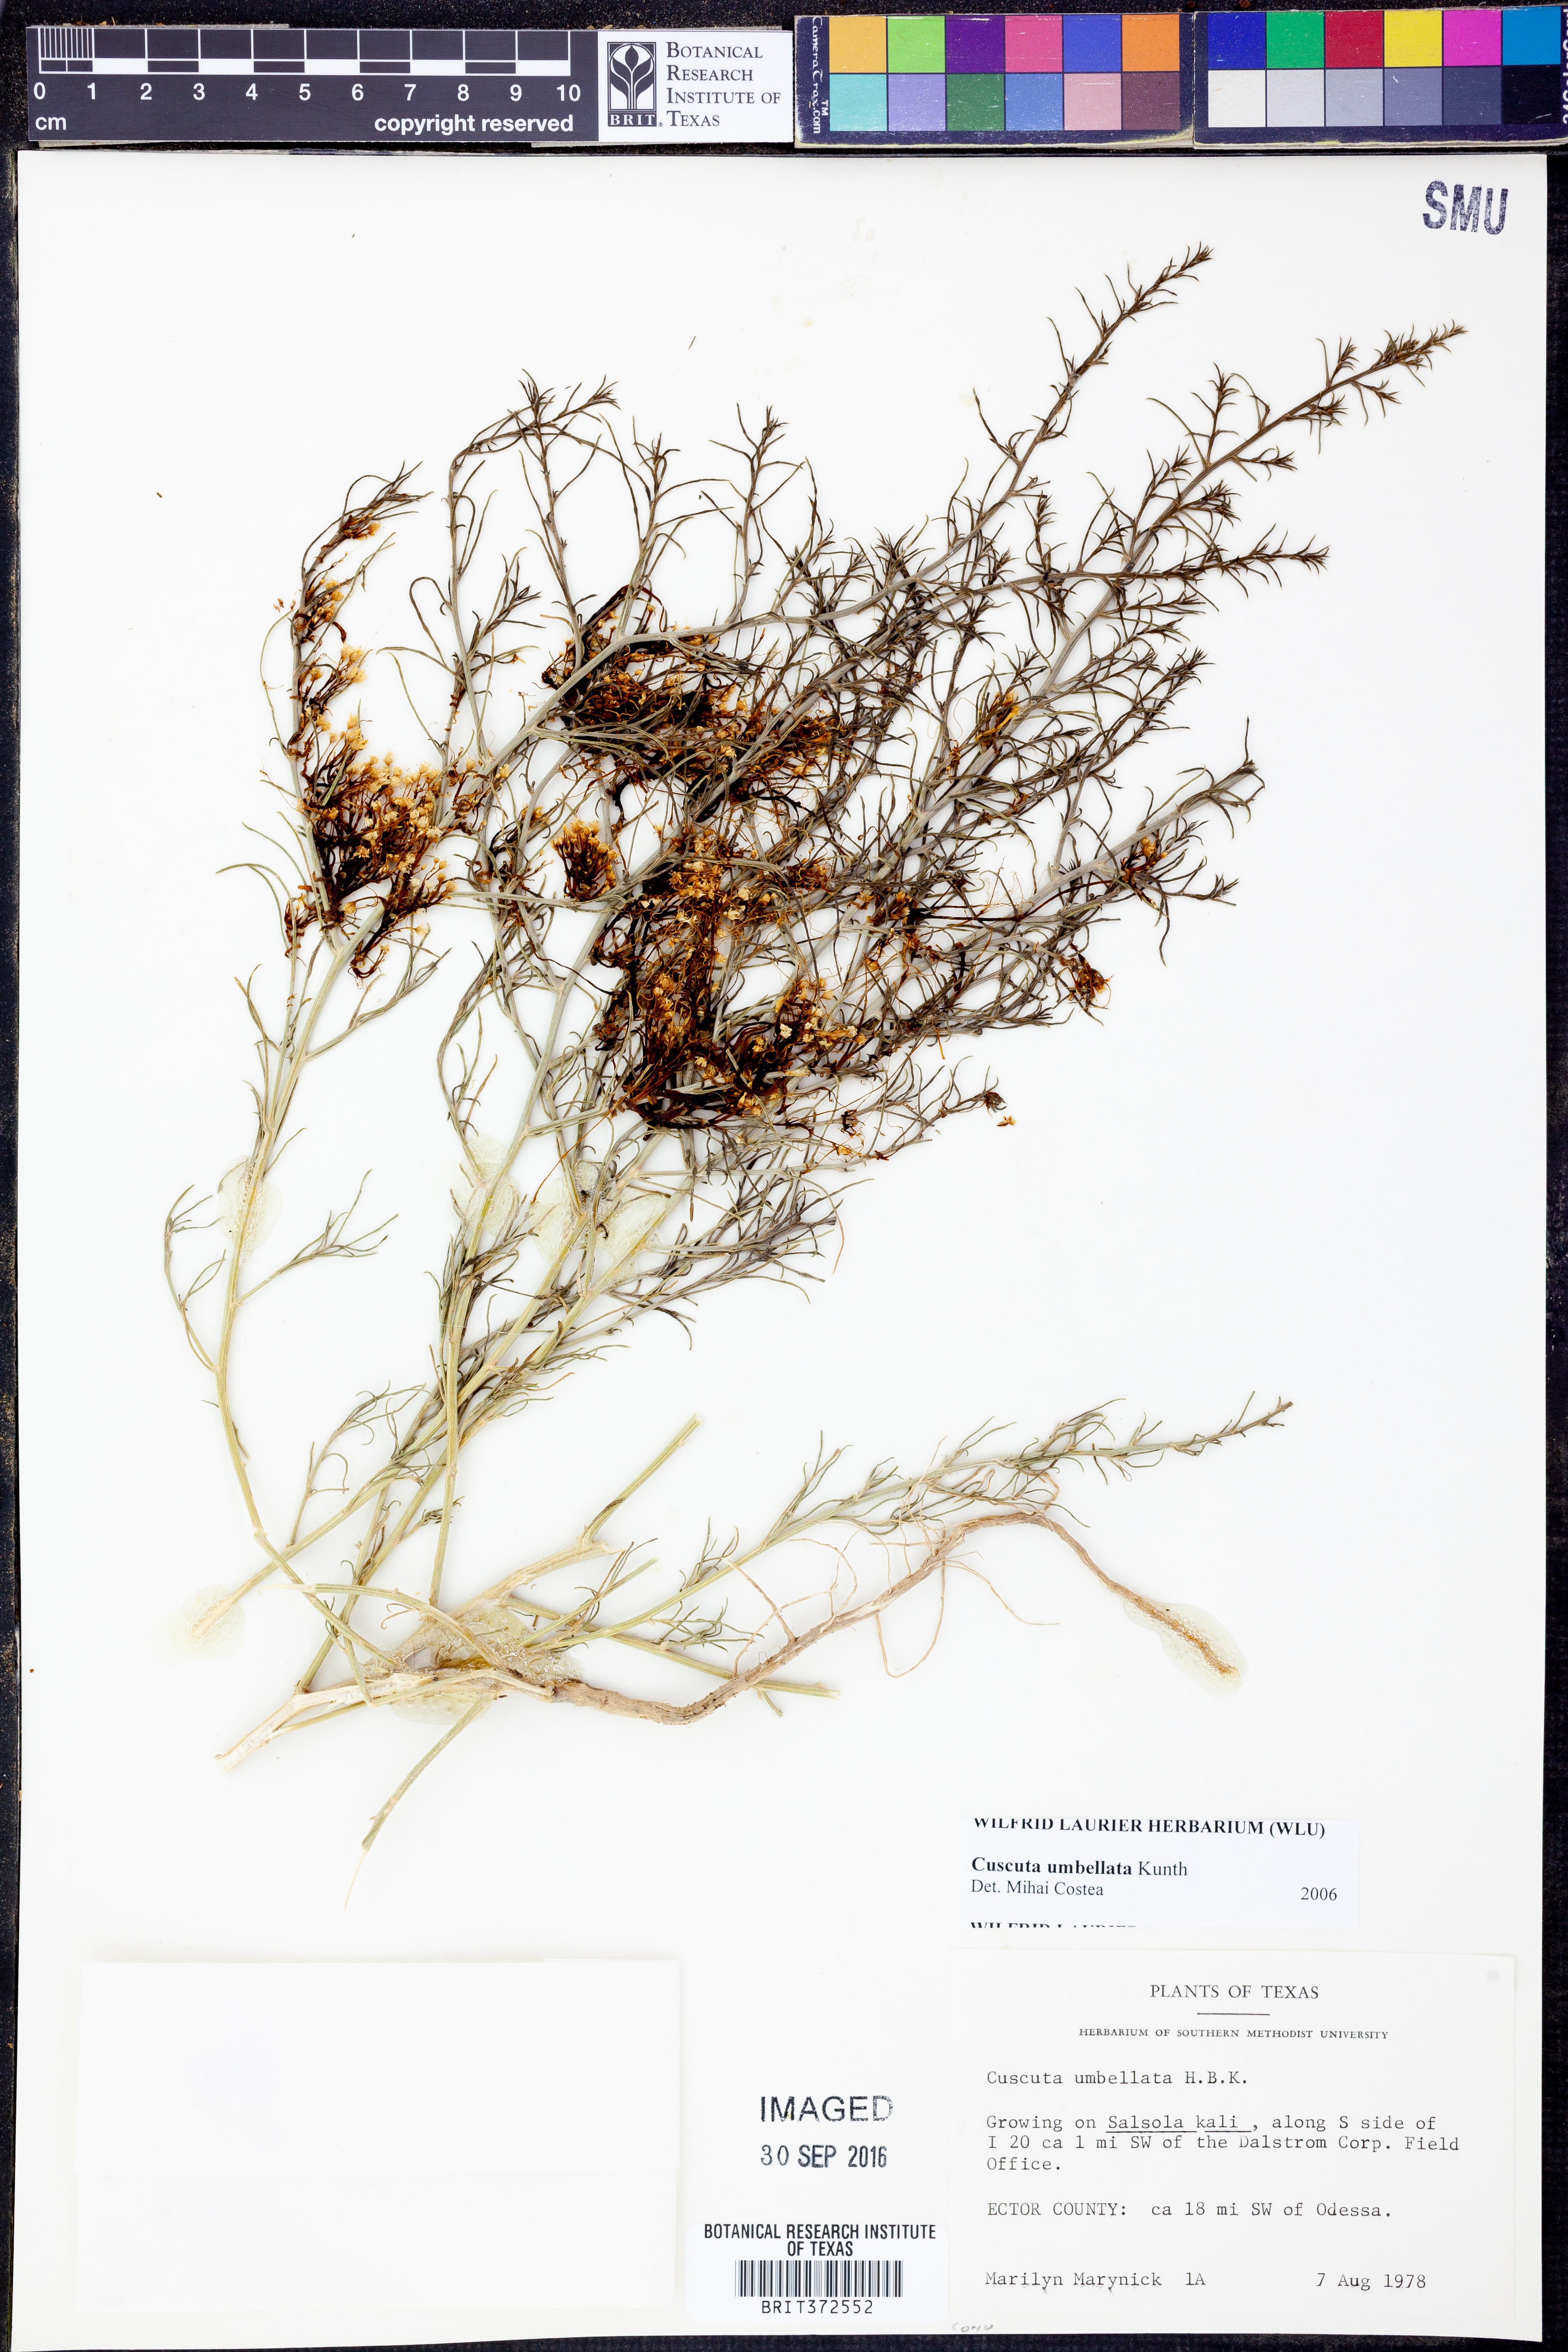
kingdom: Plantae
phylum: Tracheophyta
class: Magnoliopsida
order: Solanales
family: Convolvulaceae
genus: Cuscuta
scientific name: Cuscuta umbellata
